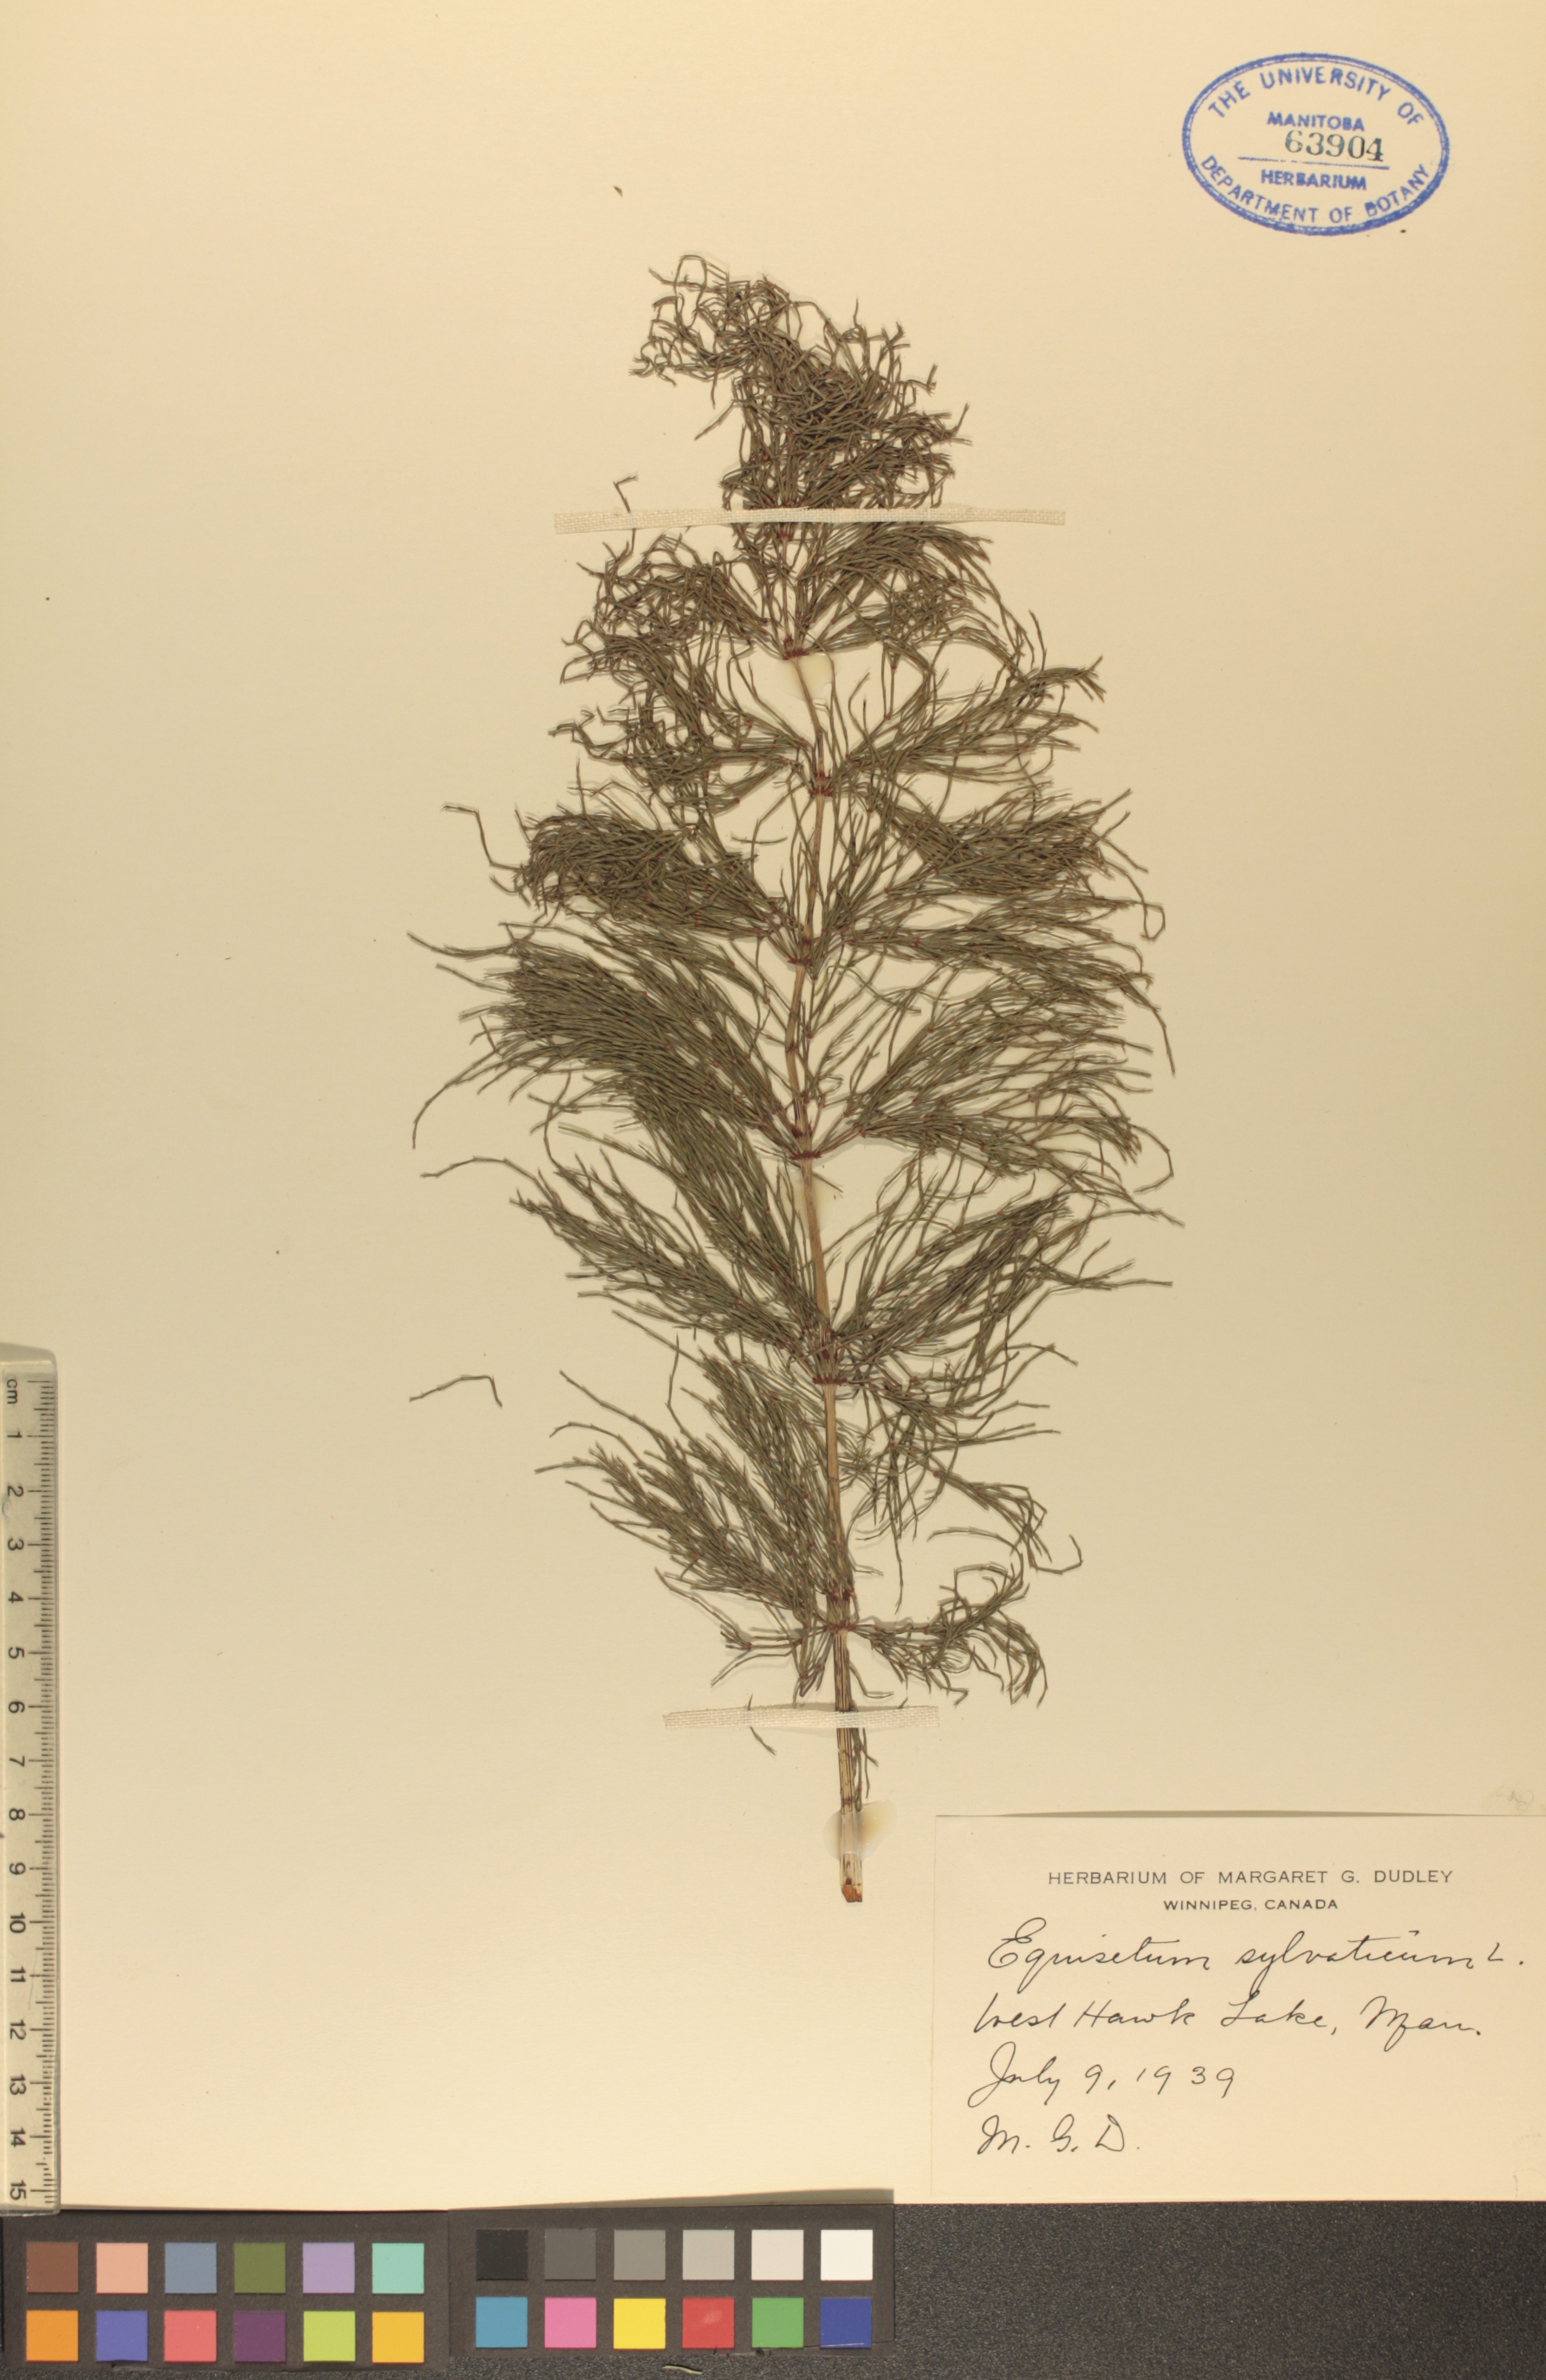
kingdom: Plantae
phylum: Tracheophyta
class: Polypodiopsida
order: Equisetales
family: Equisetaceae
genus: Equisetum
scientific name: Equisetum sylvaticum
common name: Wood horsetail
